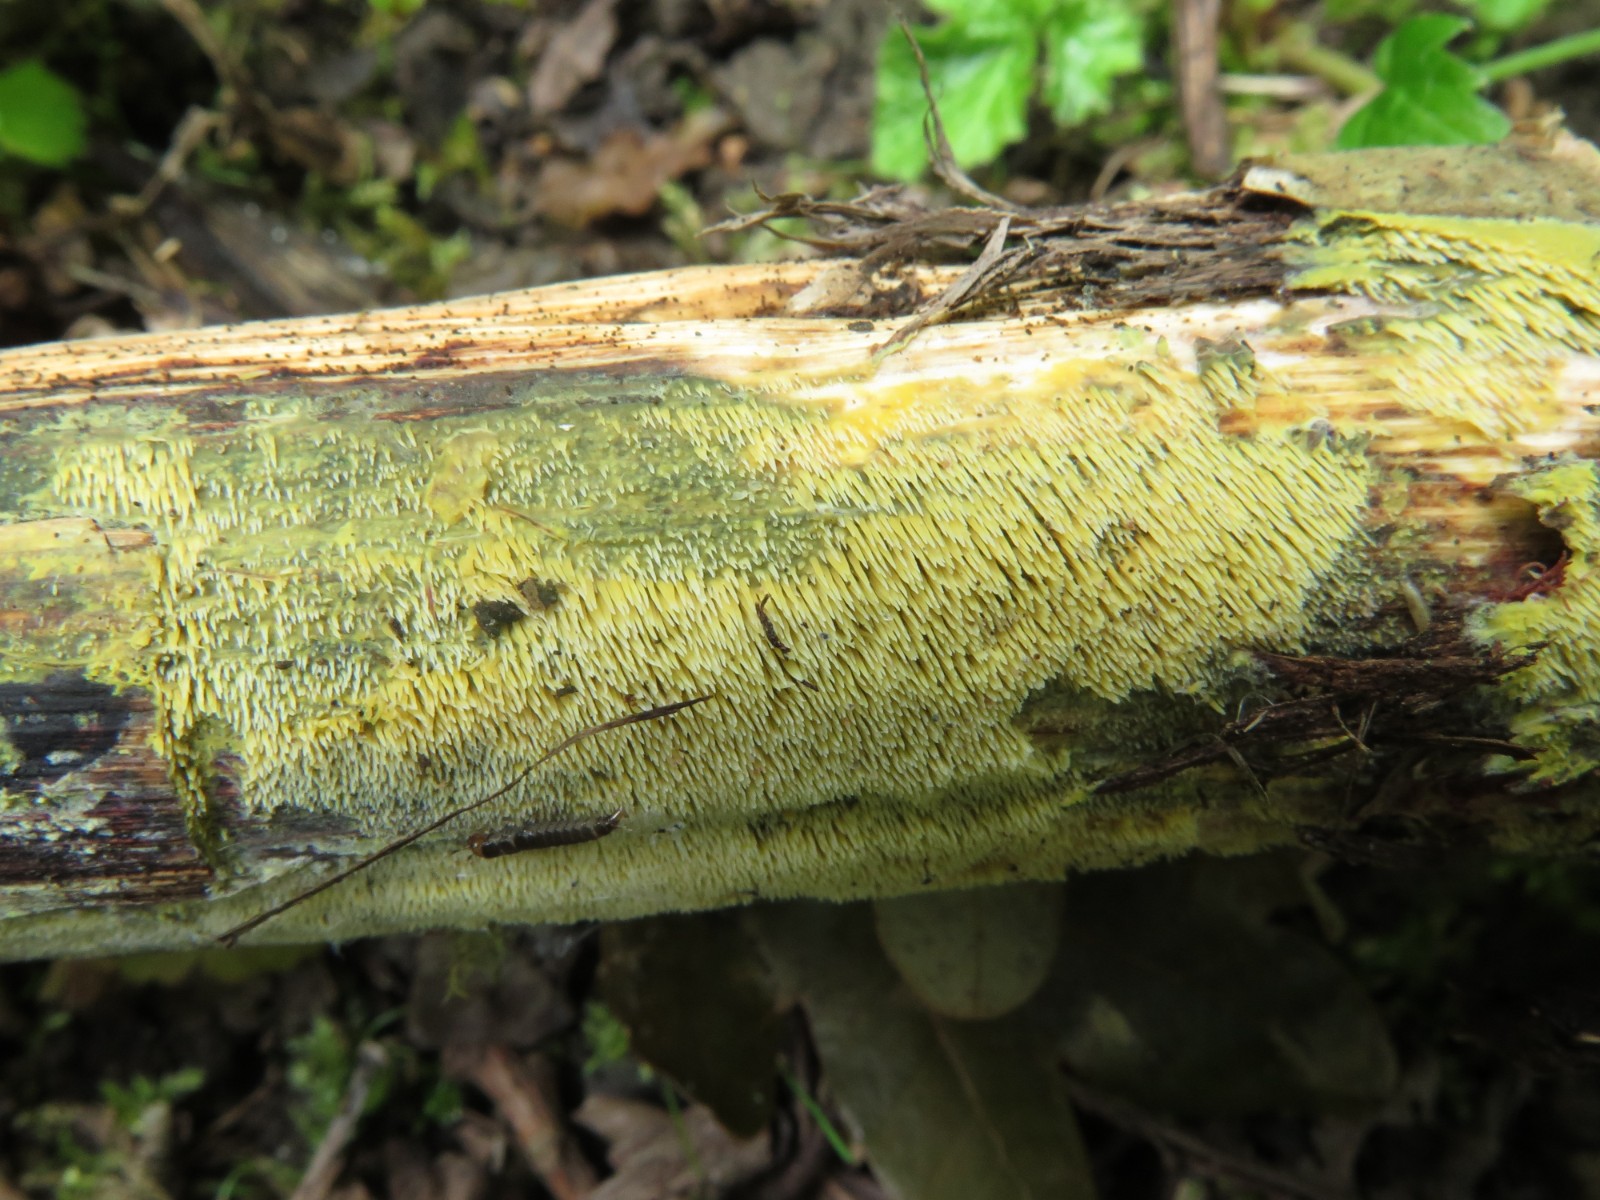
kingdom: Fungi
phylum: Basidiomycota
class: Agaricomycetes
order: Polyporales
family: Meruliaceae
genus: Mycoacia
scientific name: Mycoacia uda
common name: citrongul vokspig
